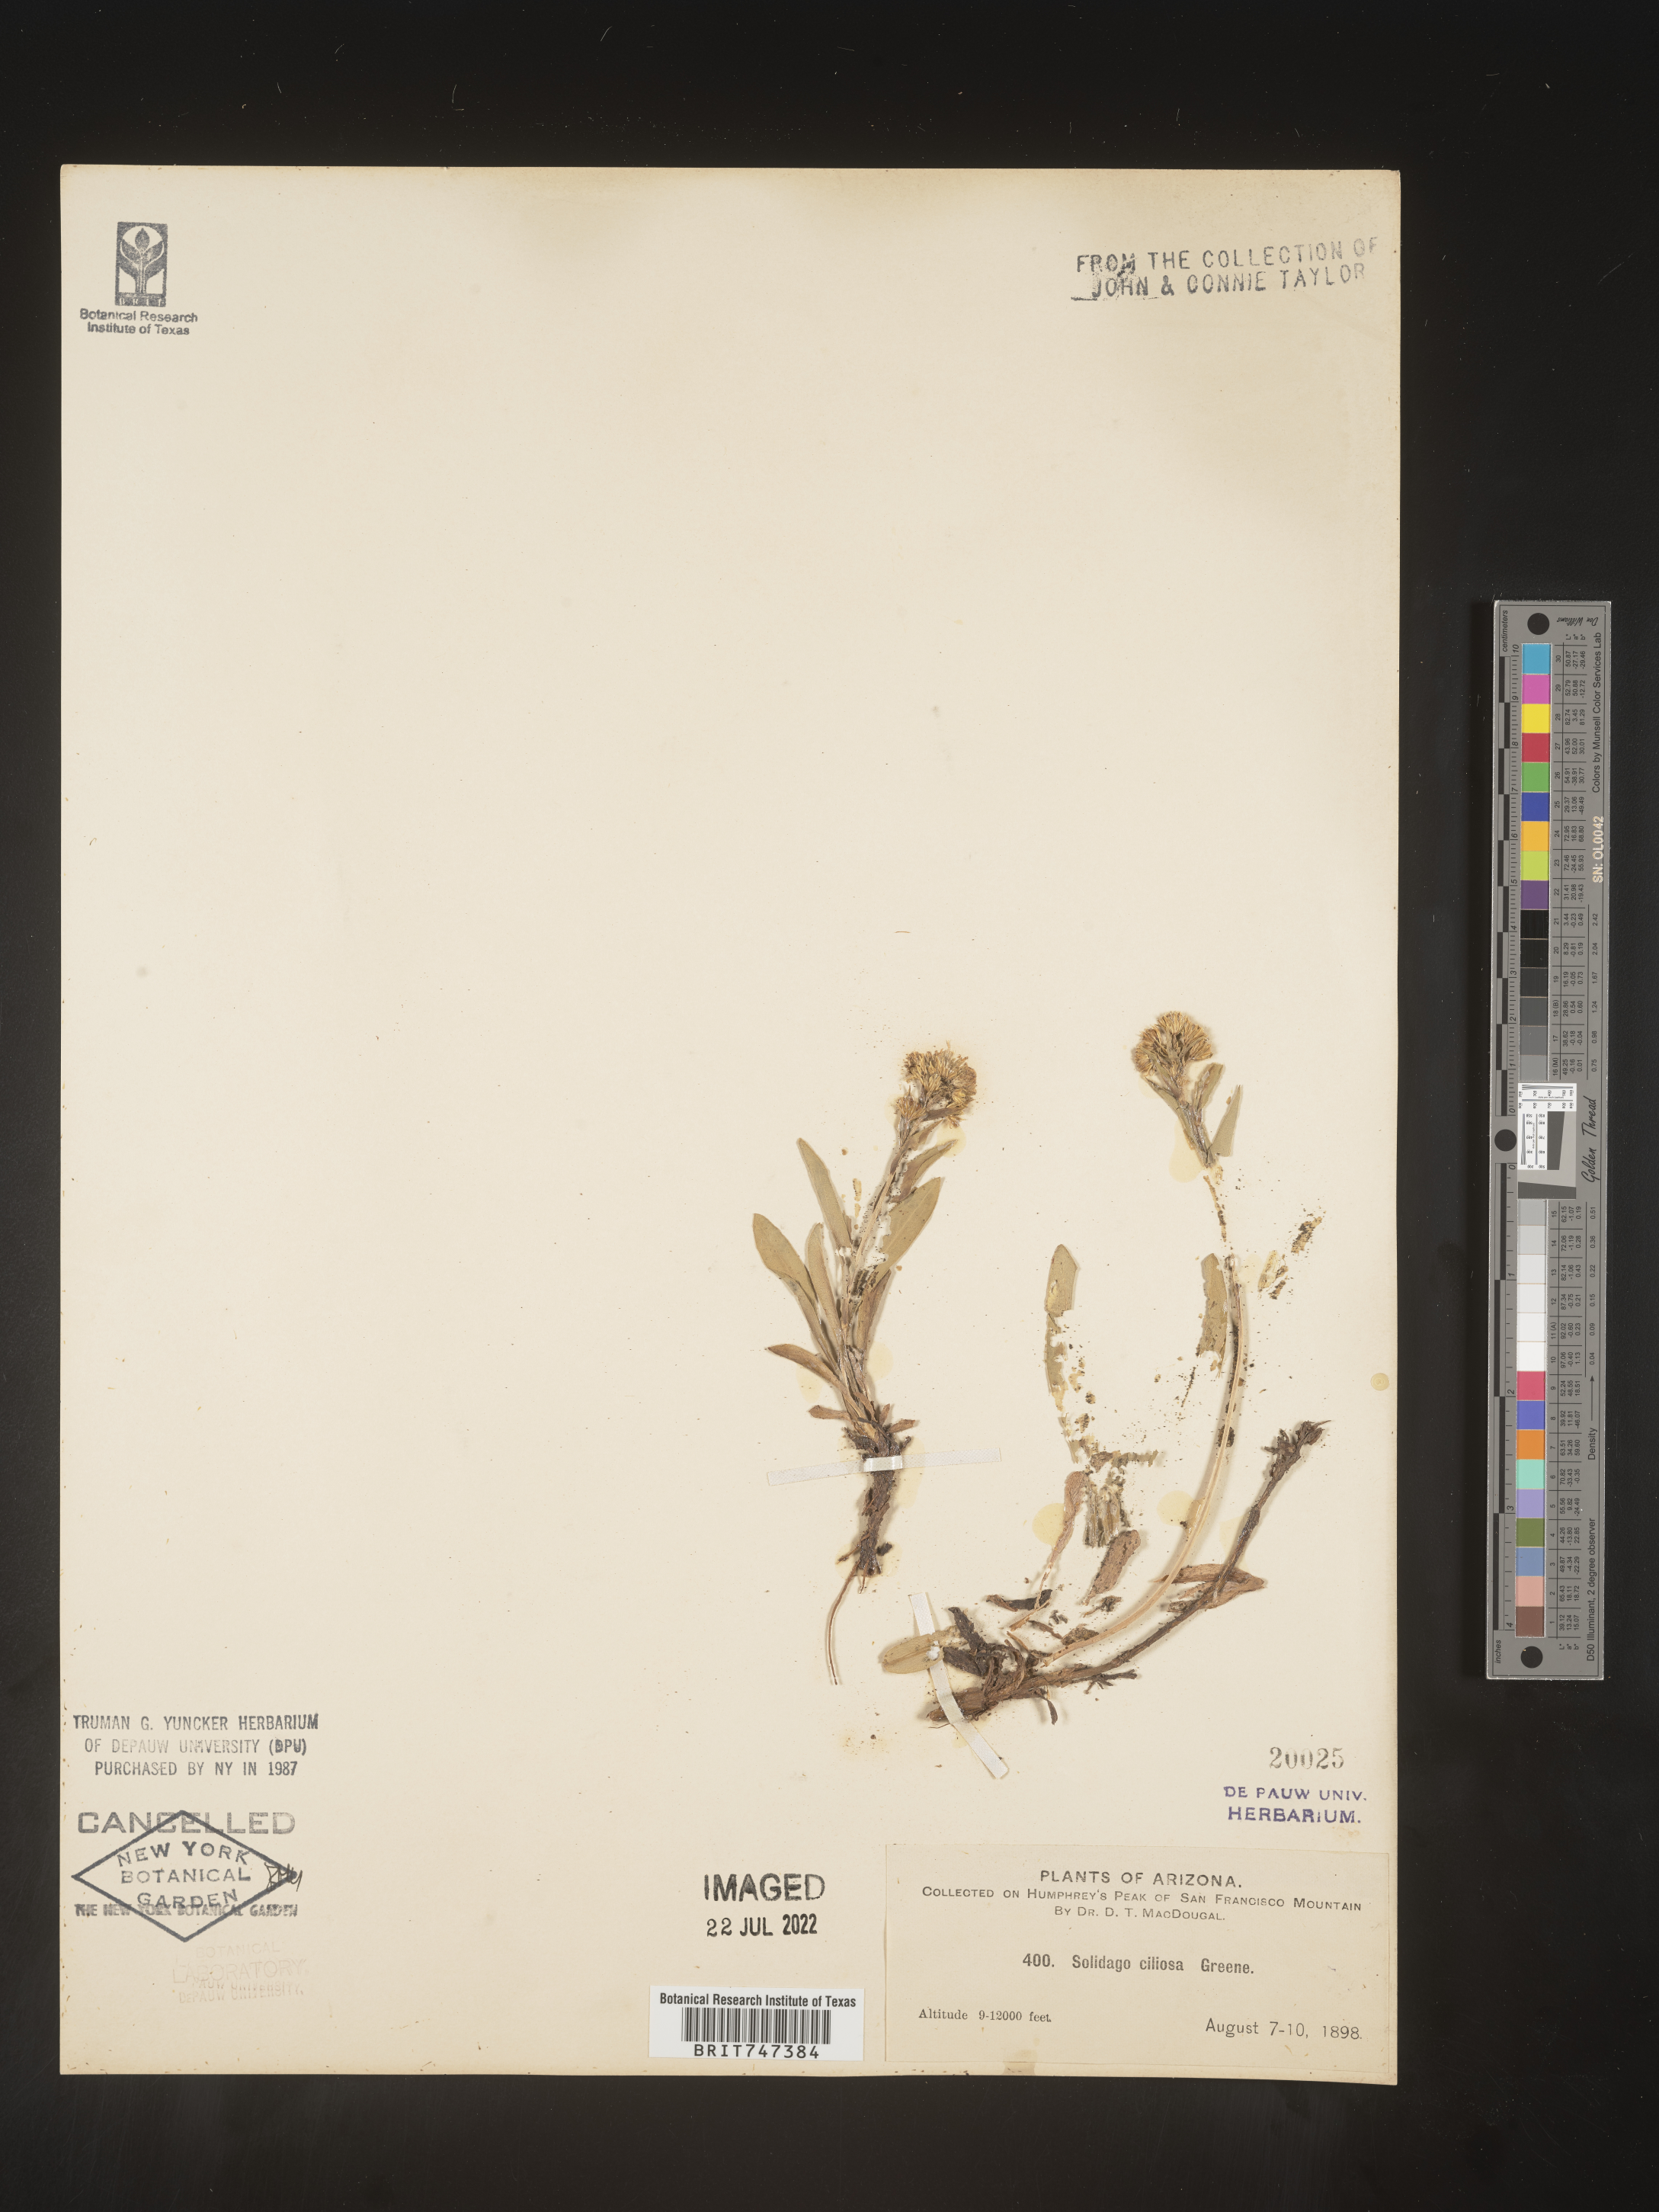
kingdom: Plantae
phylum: Tracheophyta
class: Magnoliopsida
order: Asterales
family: Asteraceae
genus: Solidago
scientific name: Solidago multiradiata
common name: Northern goldenrod
